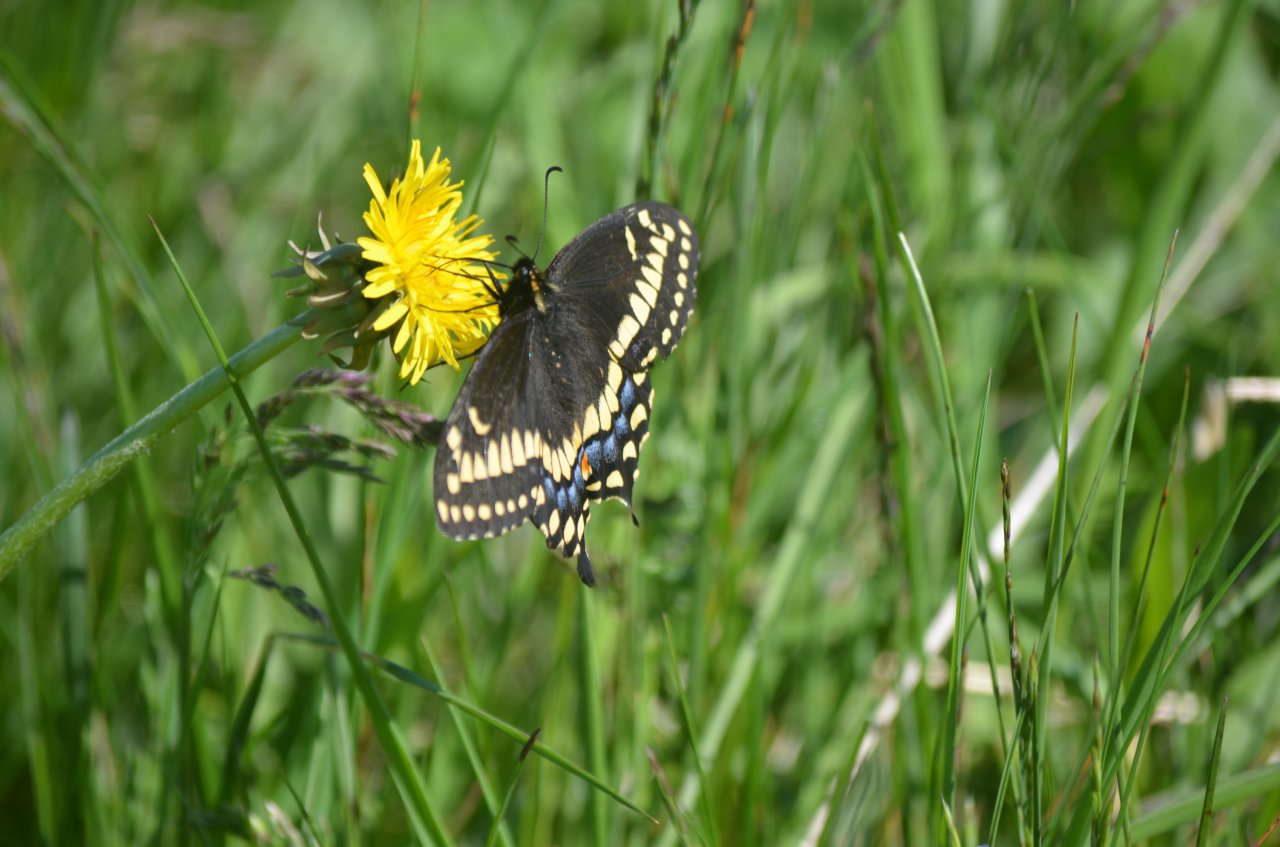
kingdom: Animalia
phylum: Arthropoda
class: Insecta
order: Lepidoptera
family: Papilionidae
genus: Papilio
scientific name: Papilio brevicauda
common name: Short-tailed Swallowtail
